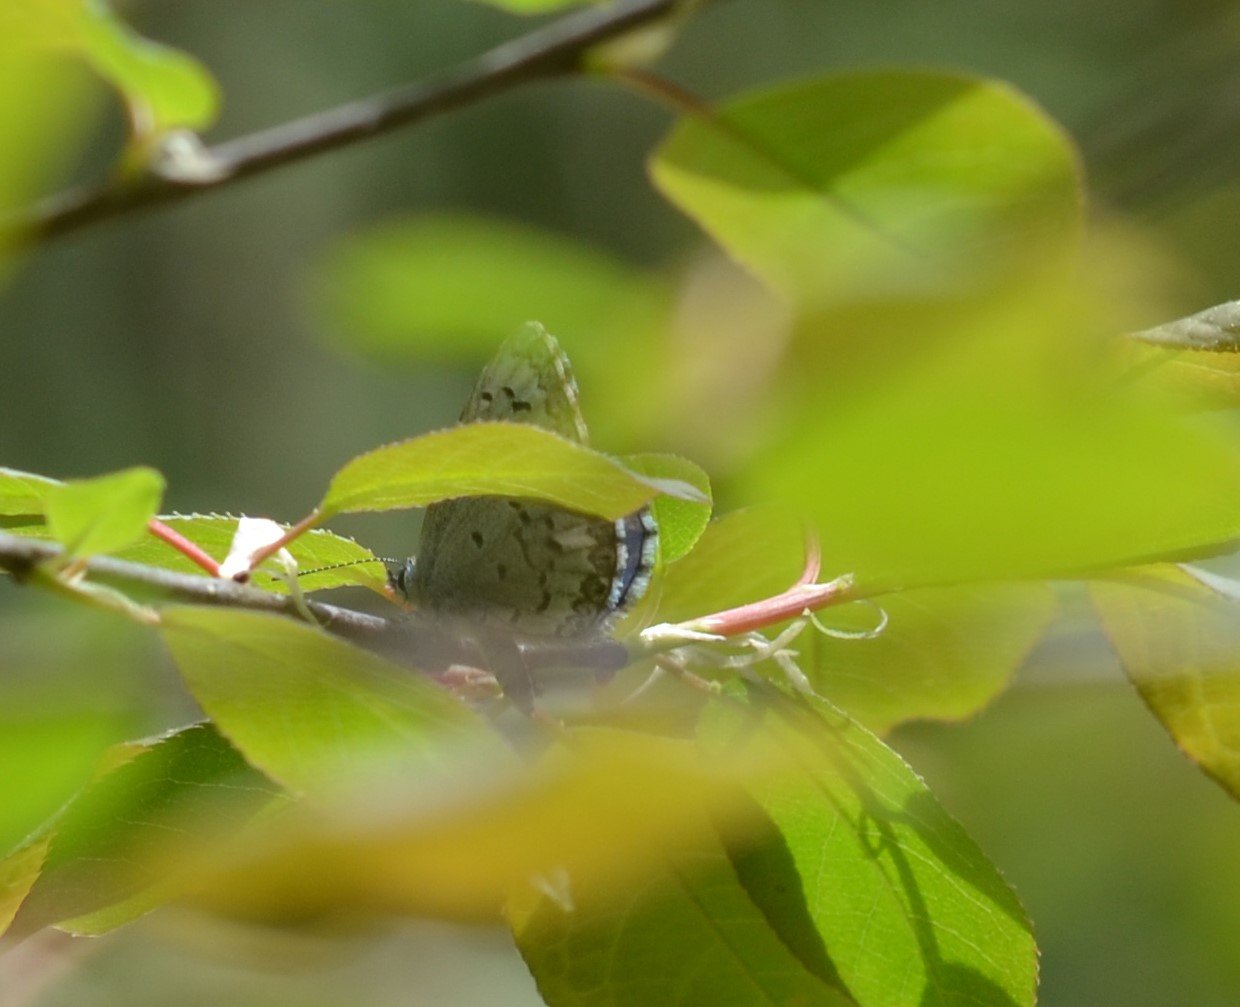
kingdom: Animalia
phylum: Arthropoda
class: Insecta
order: Lepidoptera
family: Lycaenidae
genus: Celastrina
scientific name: Celastrina
